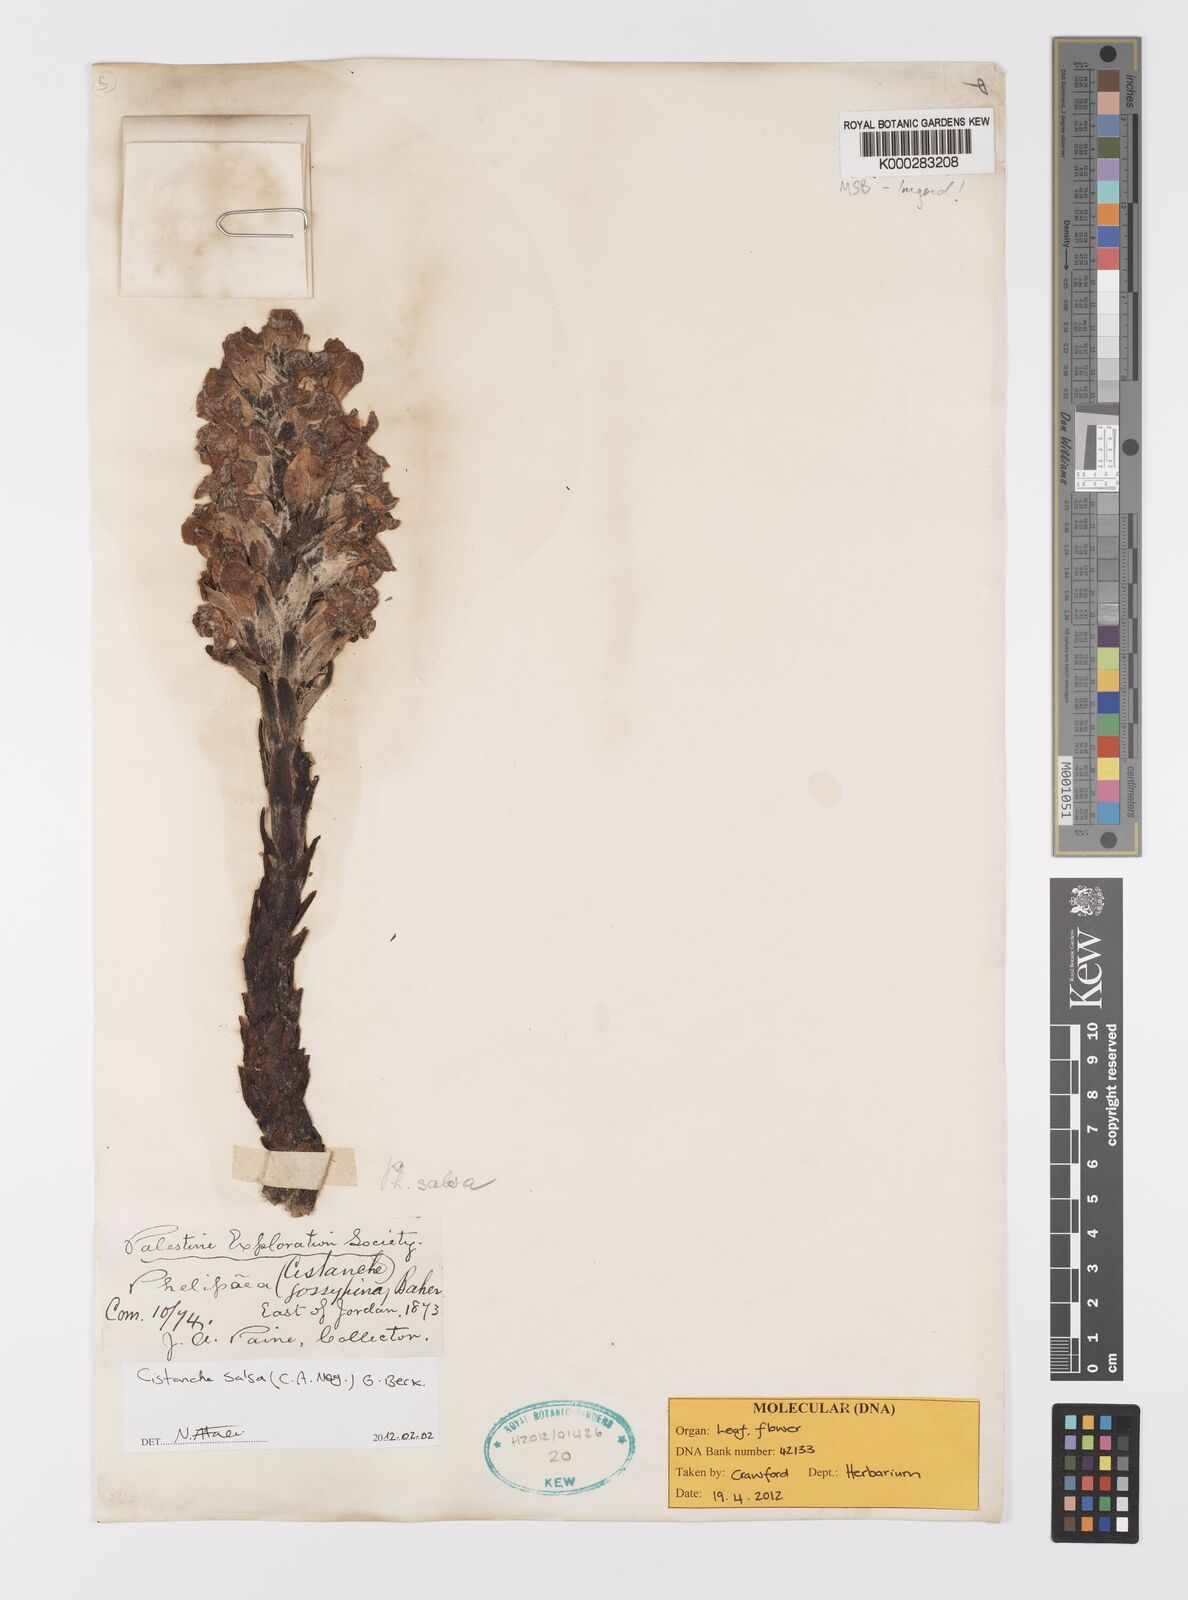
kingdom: Plantae
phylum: Tracheophyta
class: Magnoliopsida
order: Lamiales
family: Orobanchaceae
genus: Cistanche
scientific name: Cistanche salsa
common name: Broomrape
